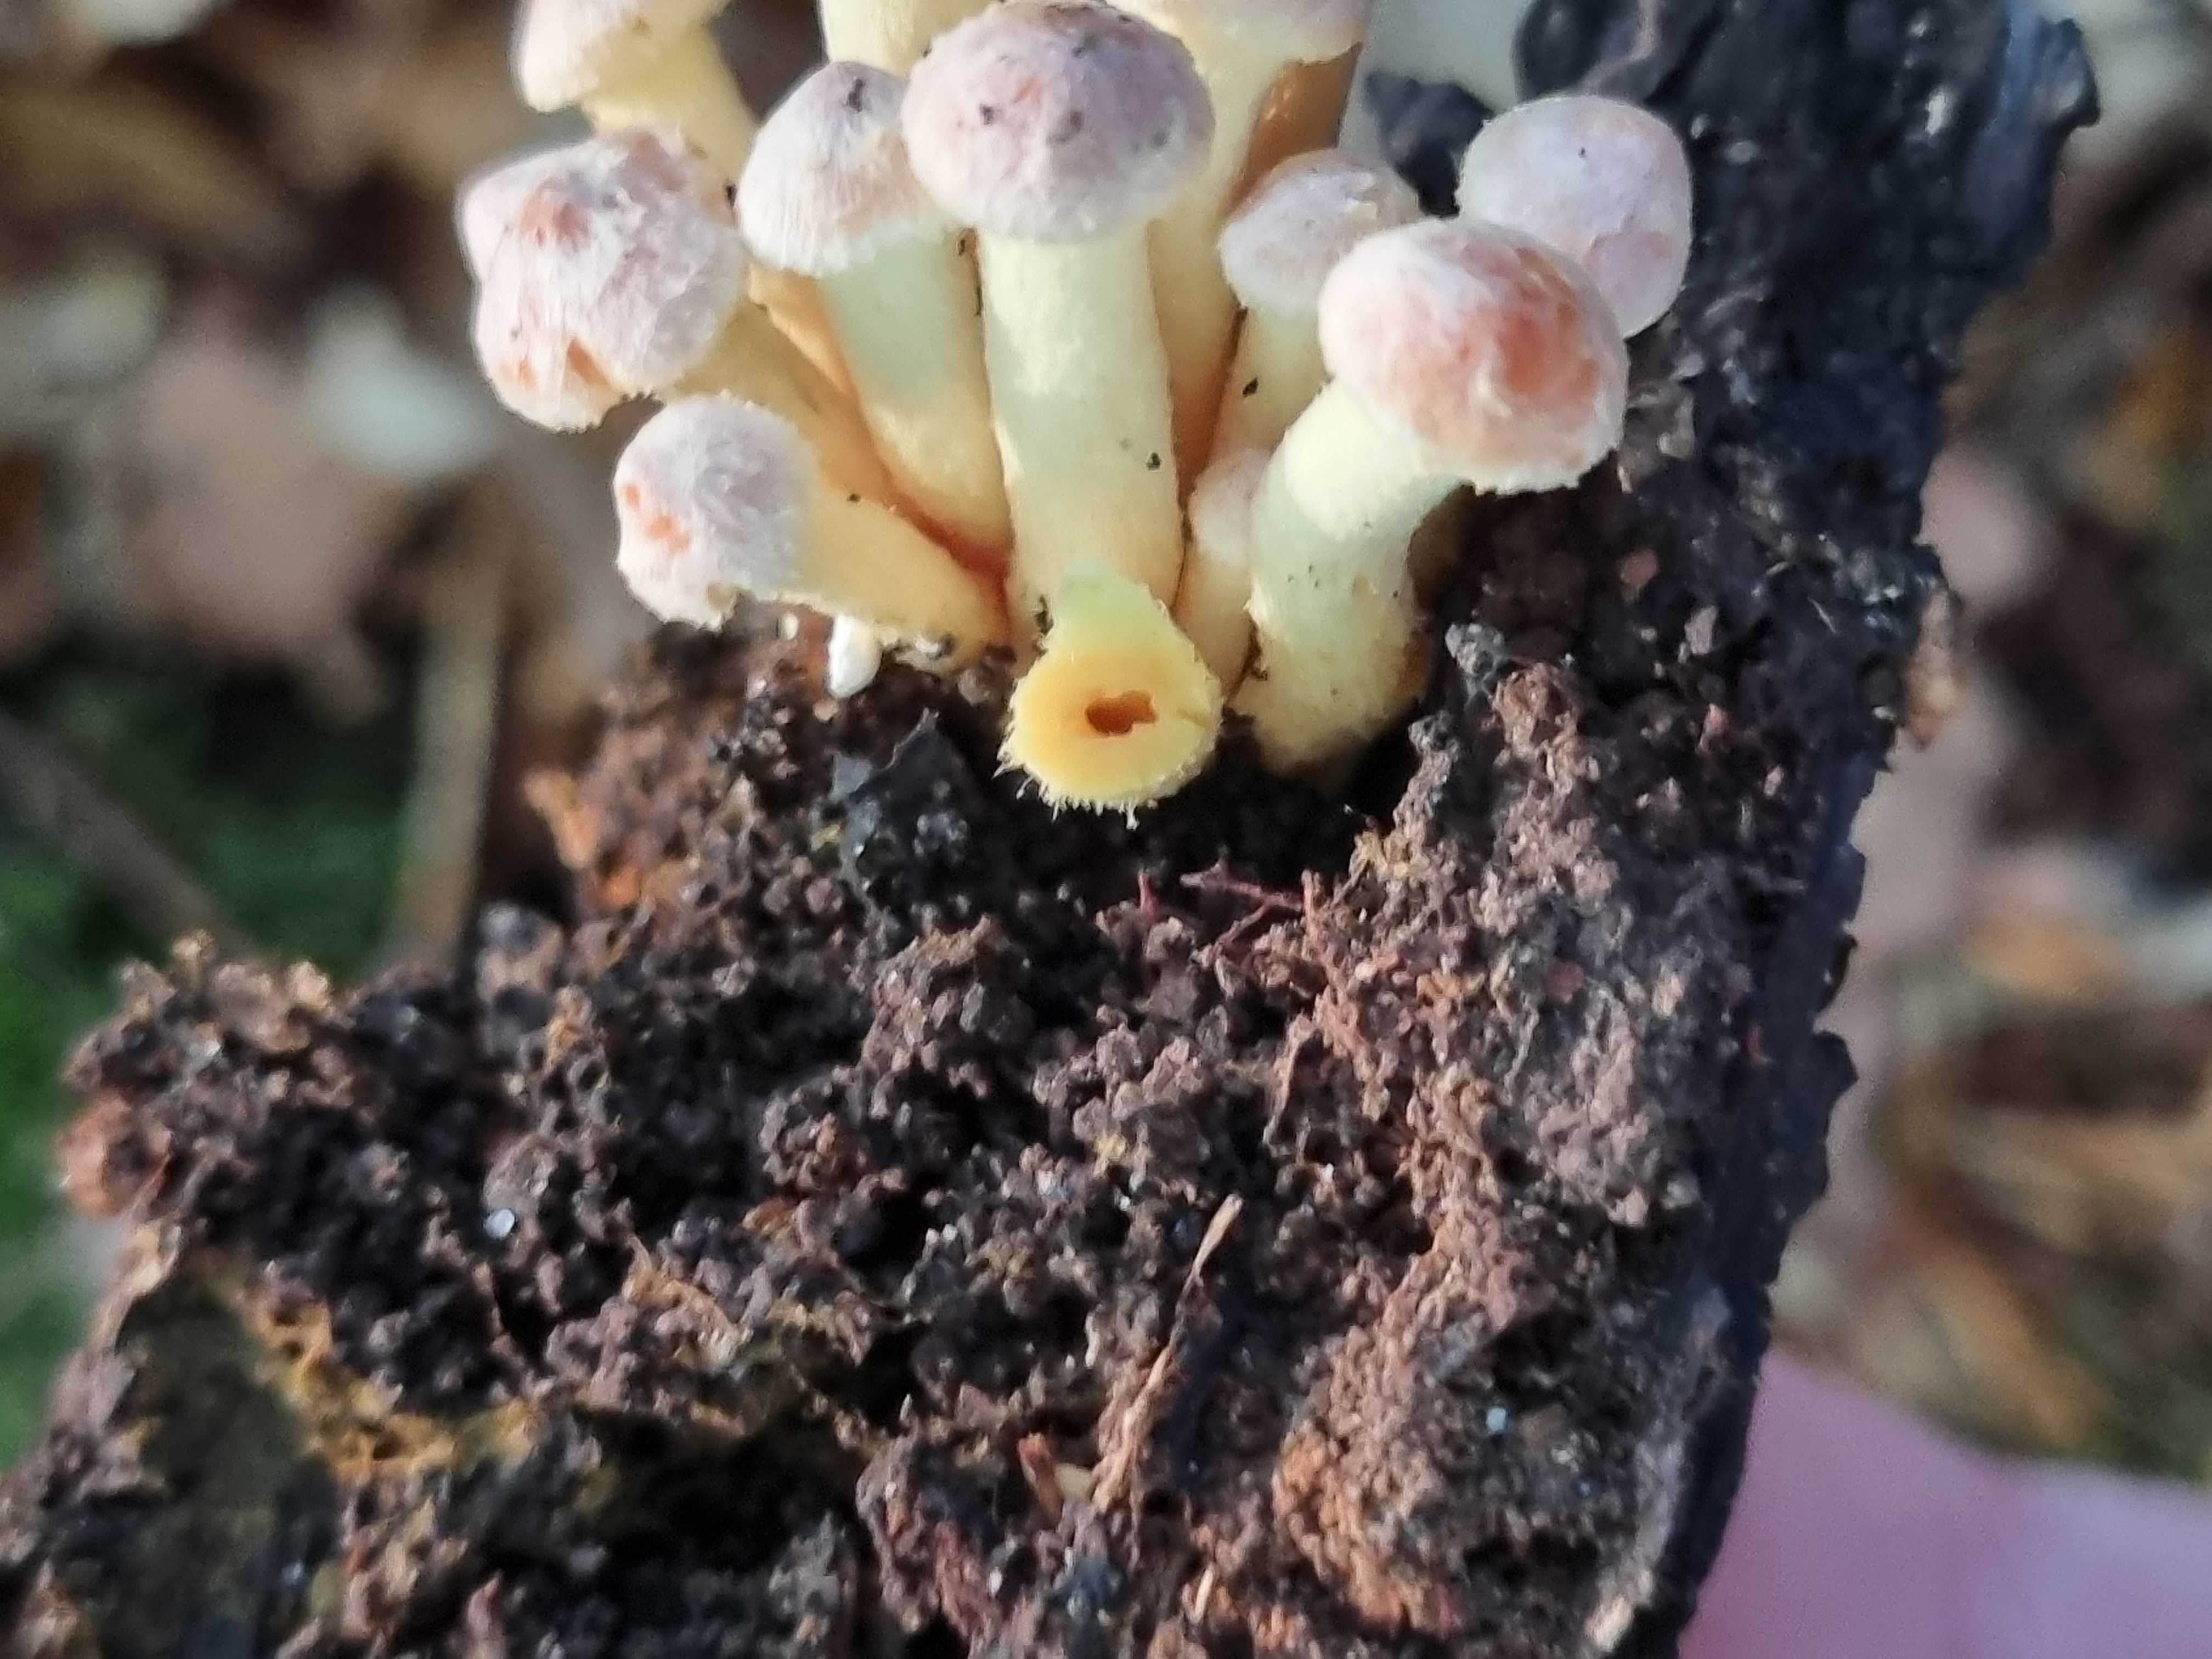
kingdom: Fungi
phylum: Basidiomycota
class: Agaricomycetes
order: Agaricales
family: Strophariaceae
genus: Hypholoma
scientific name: Hypholoma fasciculare
